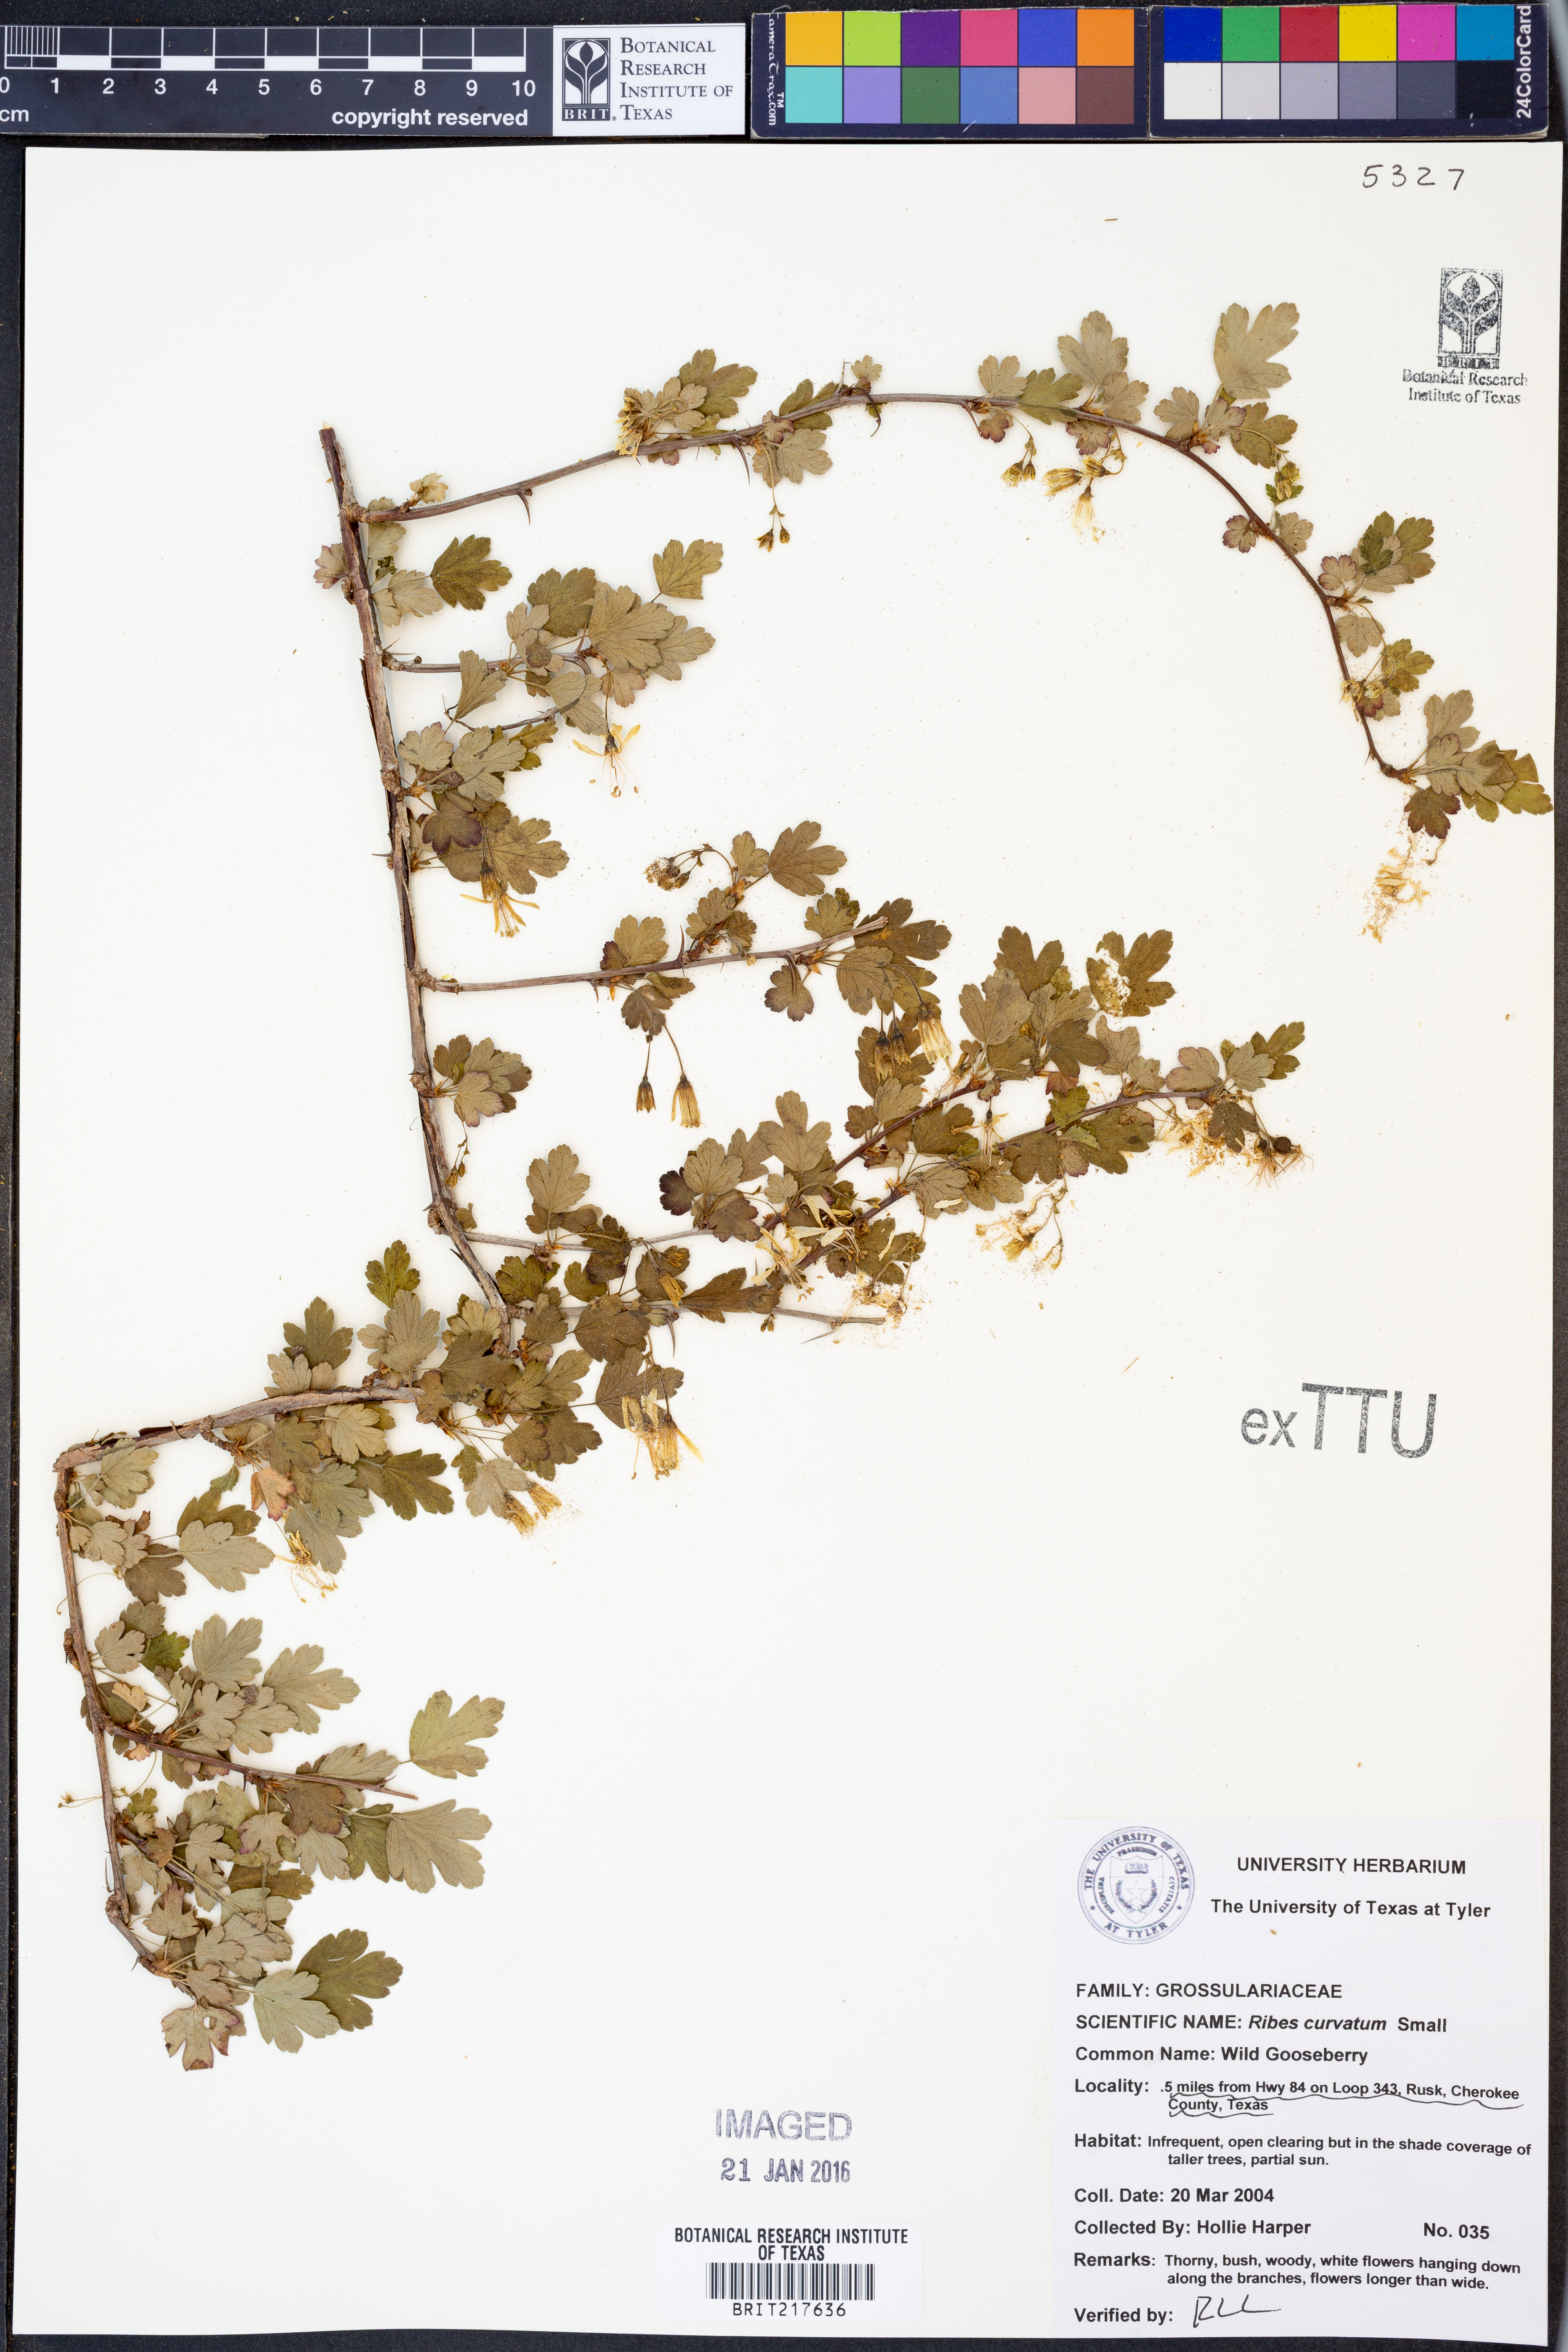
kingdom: Plantae
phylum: Tracheophyta
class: Magnoliopsida
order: Saxifragales
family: Grossulariaceae
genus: Ribes
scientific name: Ribes curvatum
